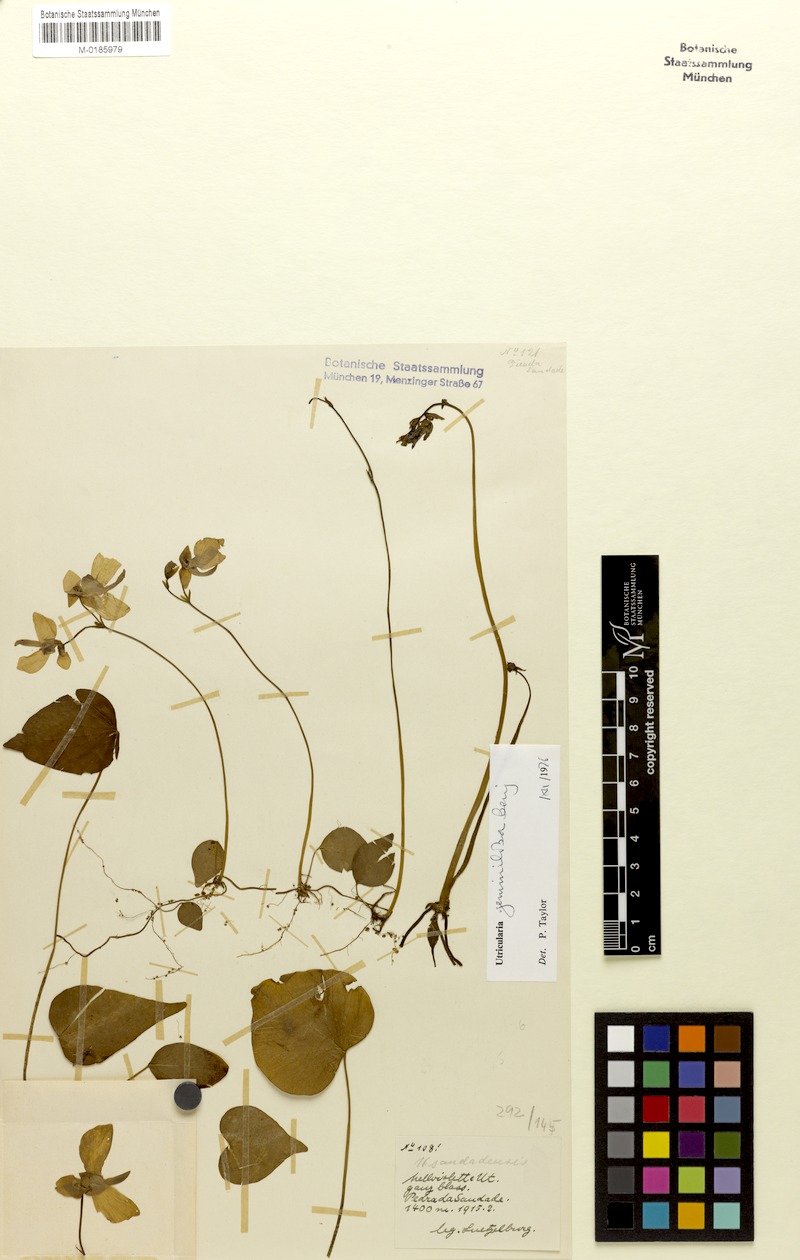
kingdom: Plantae
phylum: Tracheophyta
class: Magnoliopsida
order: Lamiales
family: Lentibulariaceae
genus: Utricularia
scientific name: Utricularia geminiloba
